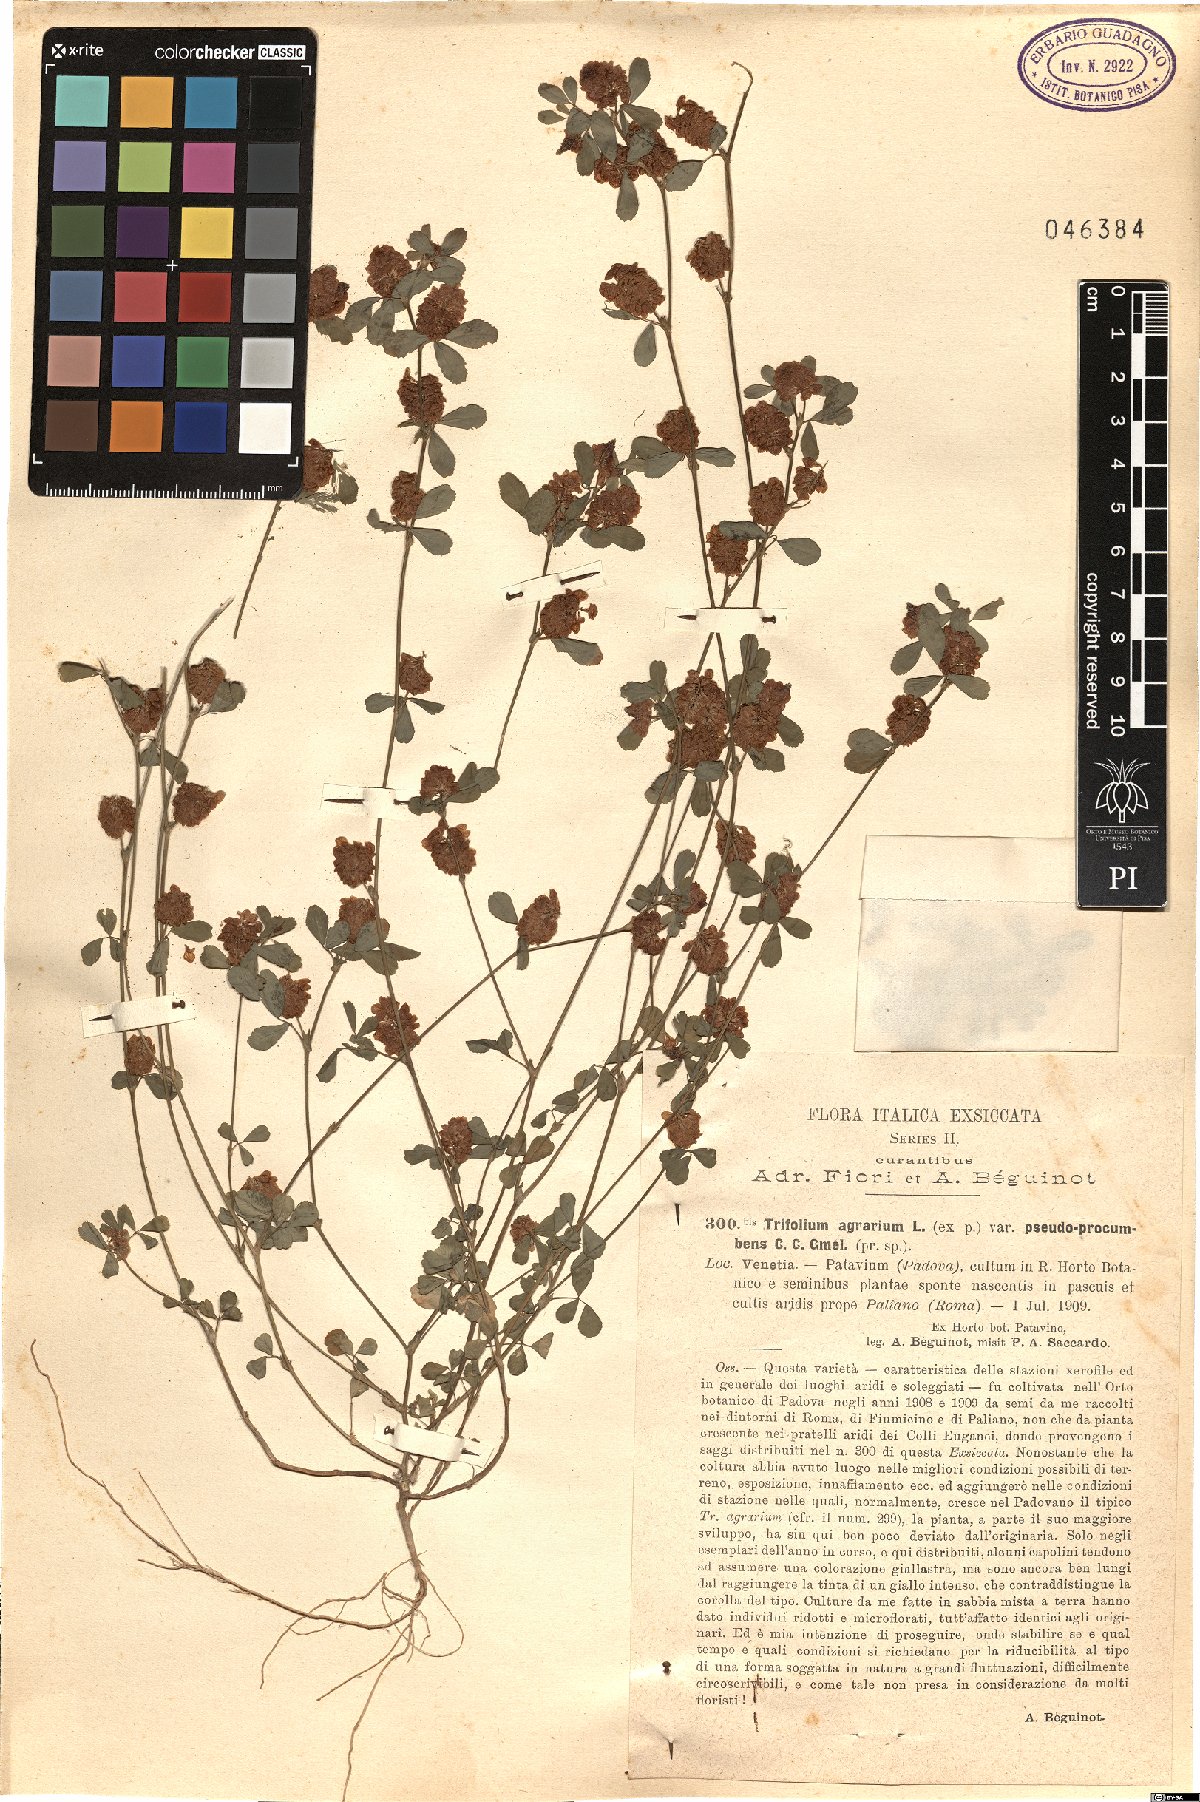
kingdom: Plantae
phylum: Tracheophyta
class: Magnoliopsida
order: Fabales
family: Fabaceae
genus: Trifolium
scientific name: Trifolium aureum
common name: Golden clover
